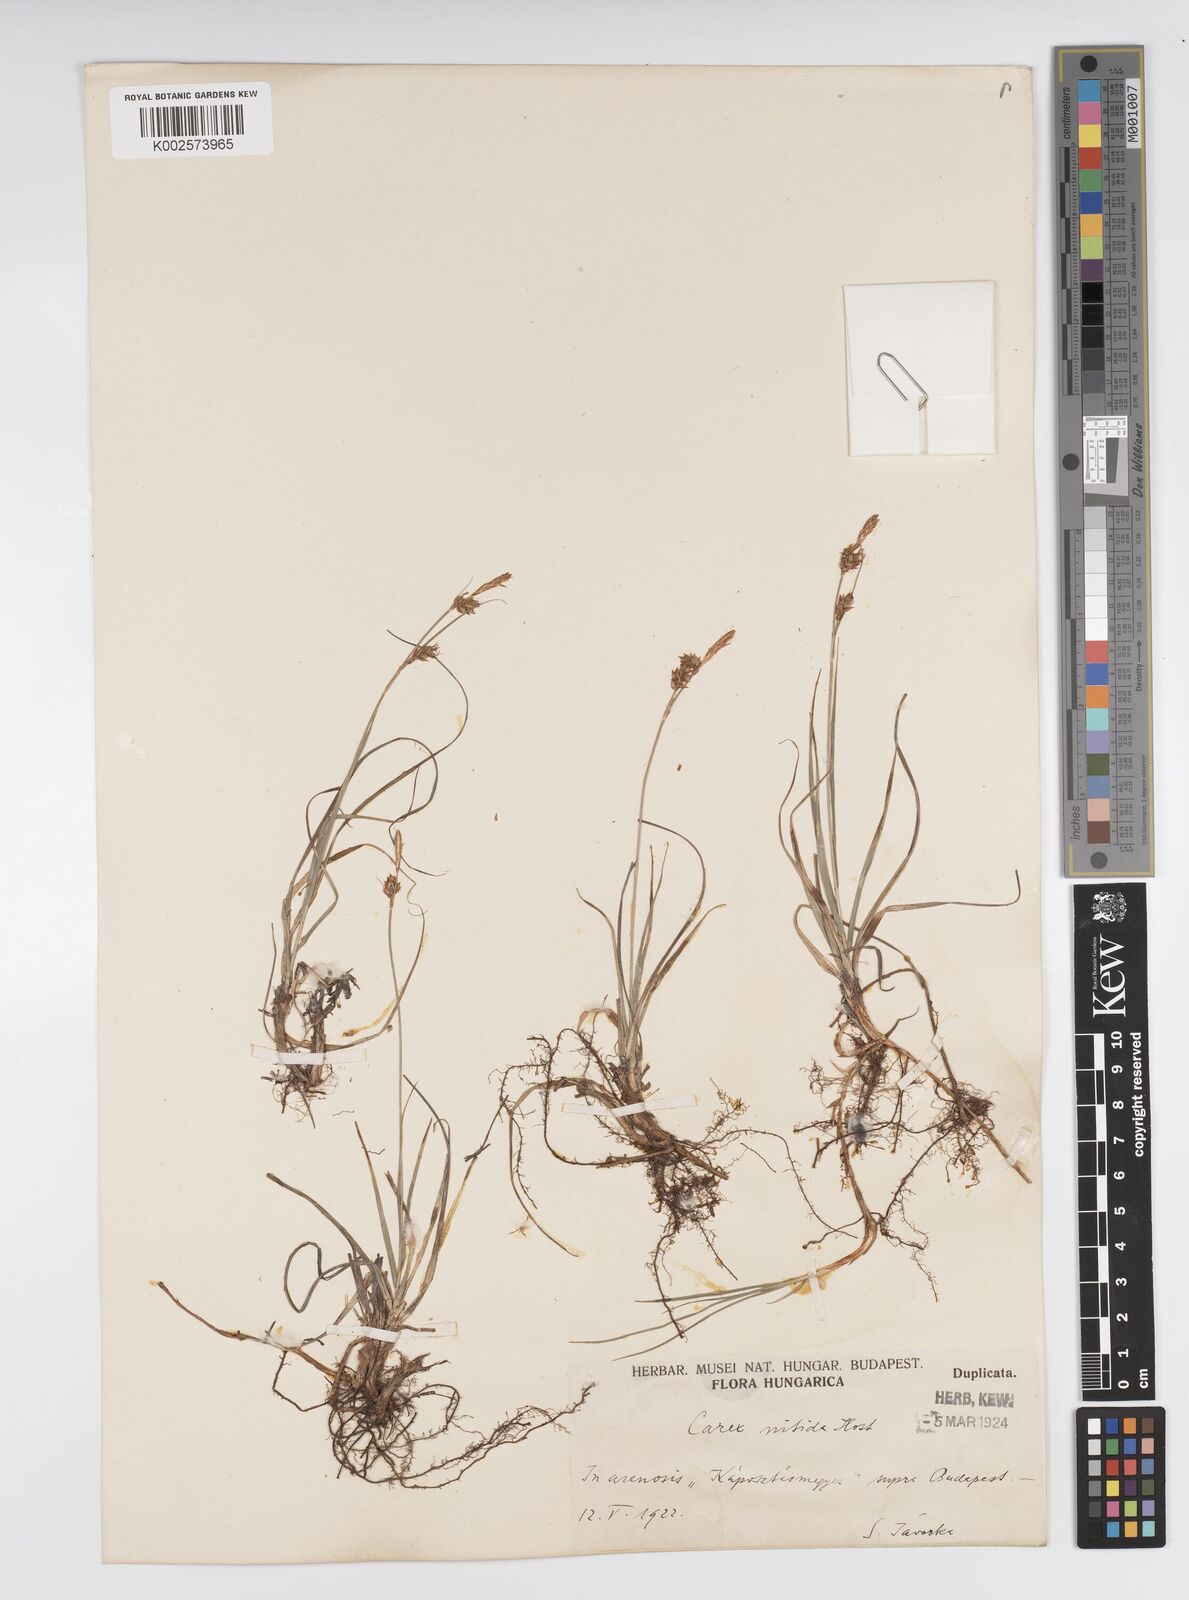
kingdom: Plantae
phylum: Tracheophyta
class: Liliopsida
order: Poales
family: Cyperaceae
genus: Carex
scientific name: Carex mucronata
